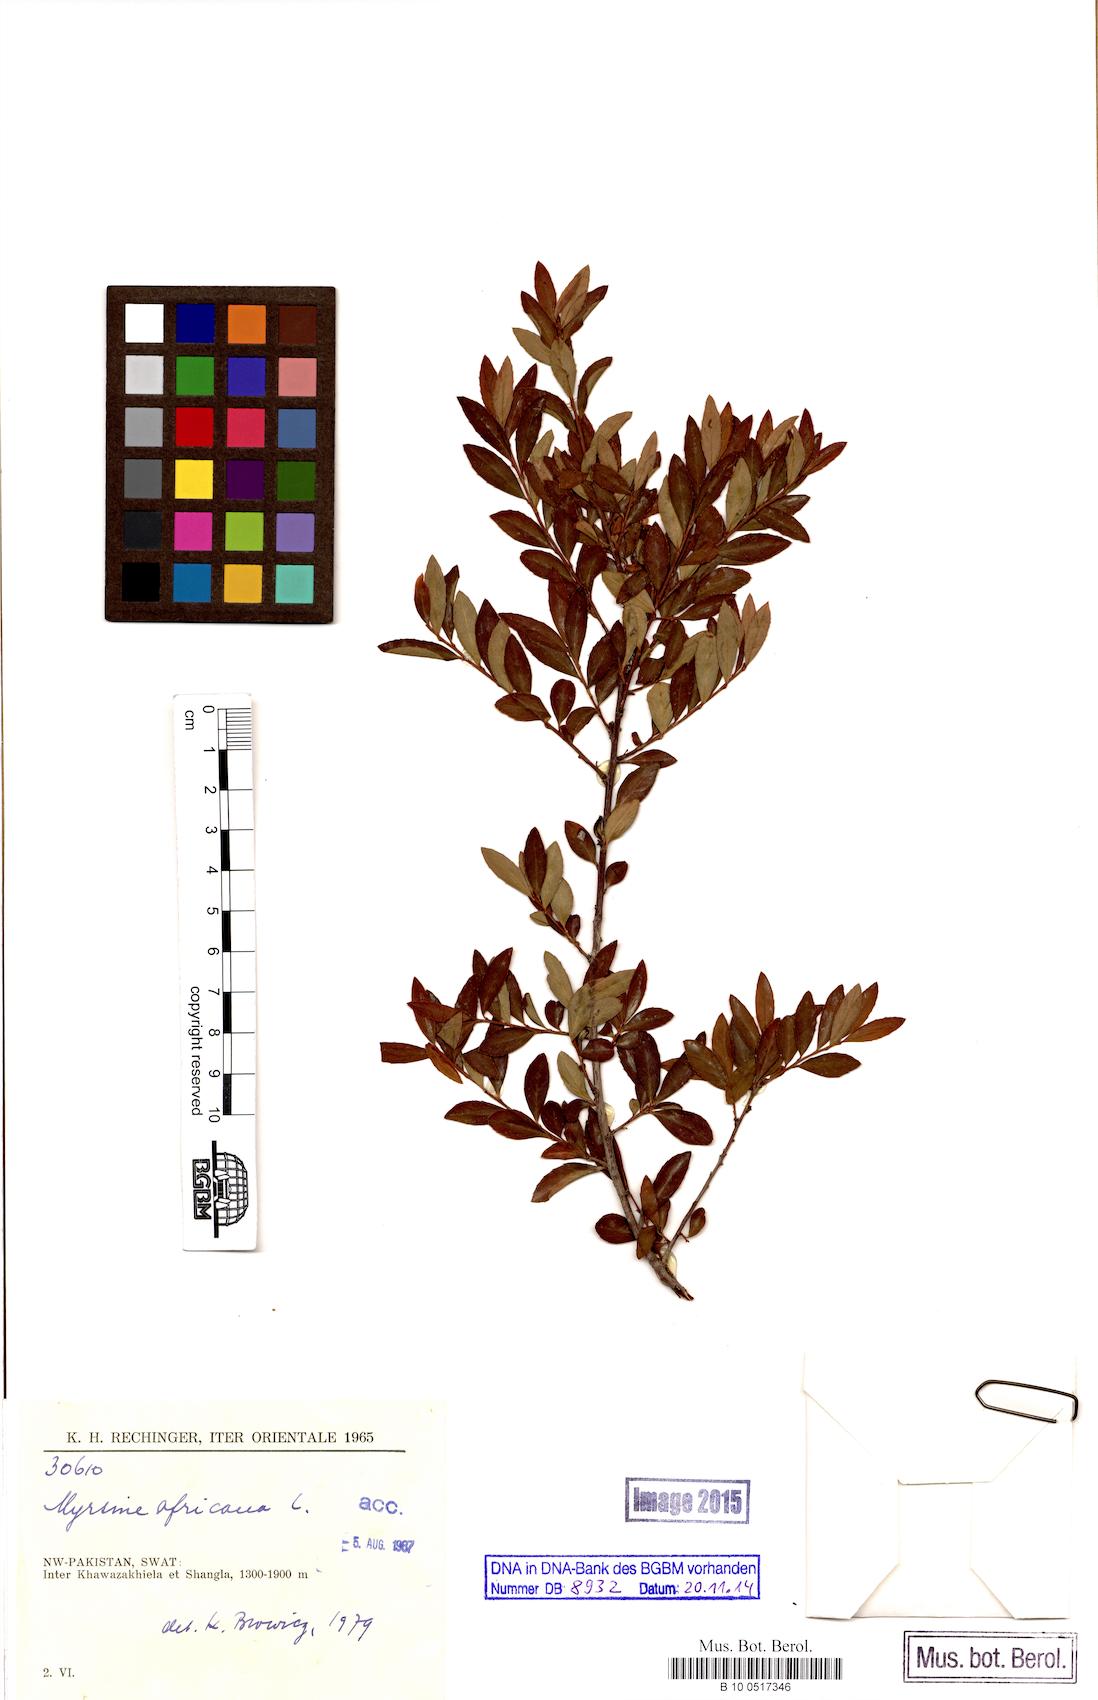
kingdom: Plantae
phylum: Tracheophyta
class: Magnoliopsida
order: Ericales
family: Primulaceae
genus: Myrsine
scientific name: Myrsine africana
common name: African-boxwood
